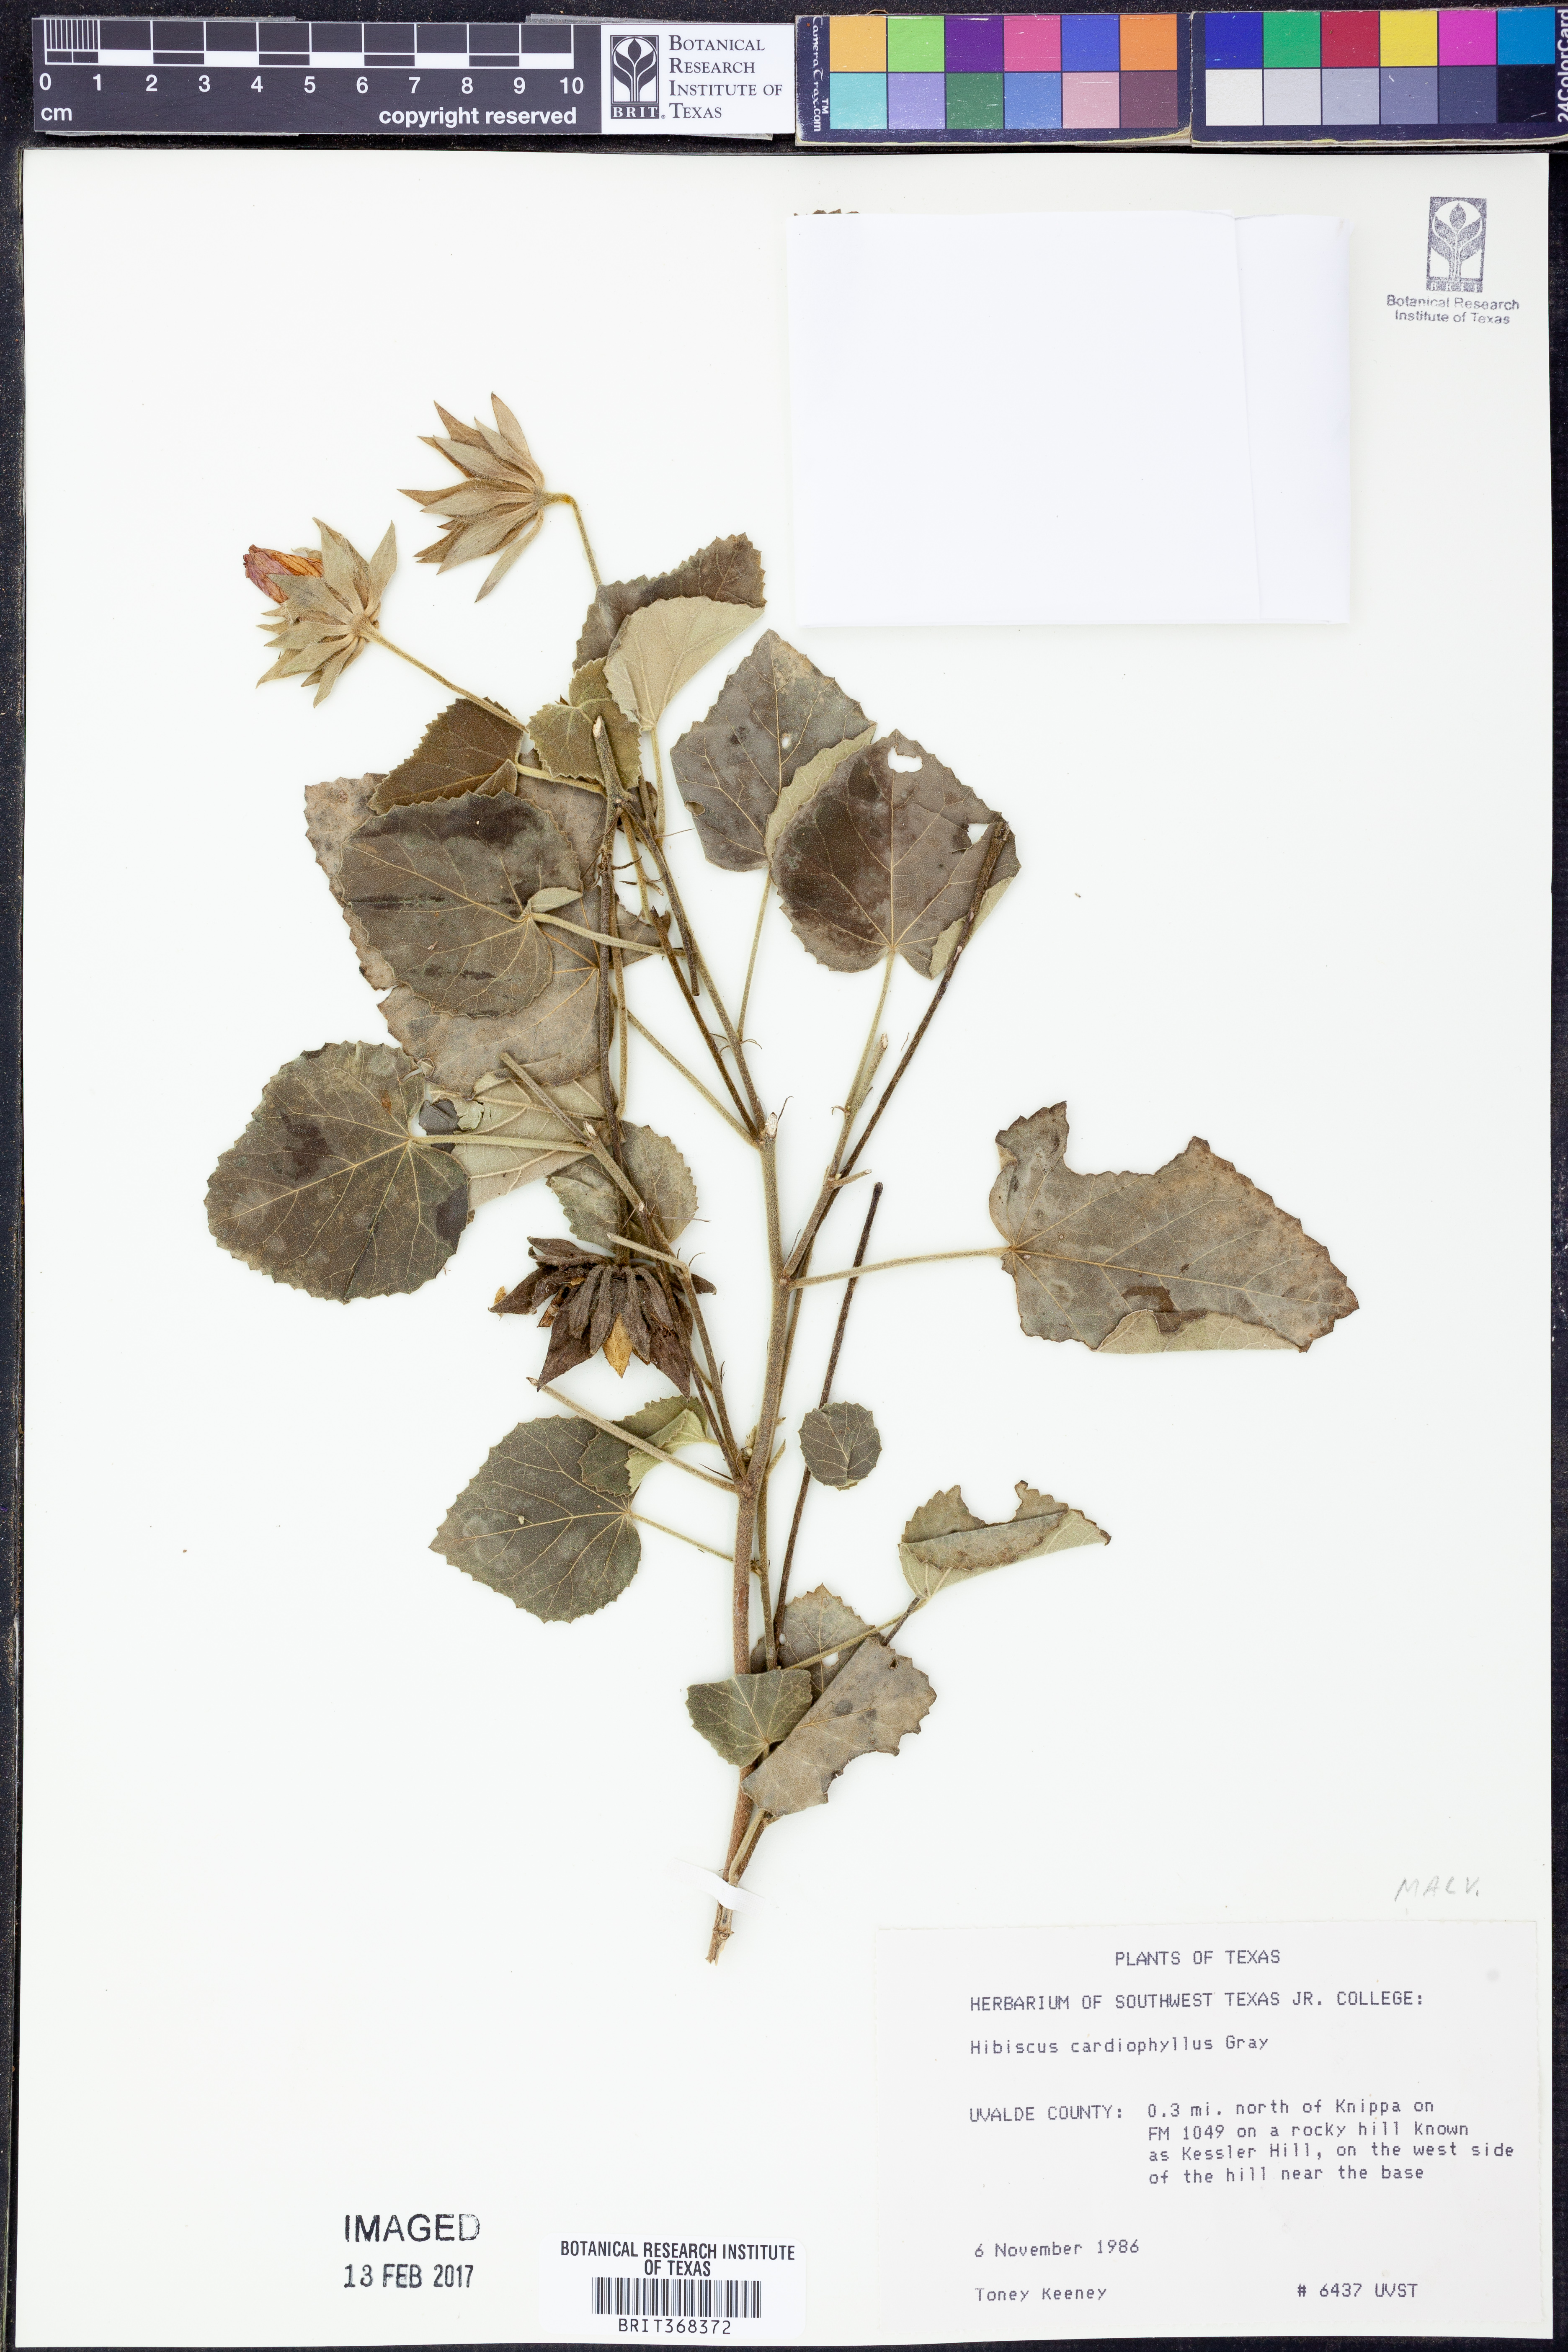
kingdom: Plantae
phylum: Tracheophyta
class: Magnoliopsida
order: Malvales
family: Malvaceae
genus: Abelmoschus
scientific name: Abelmoschus moschatus
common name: Musk okra
